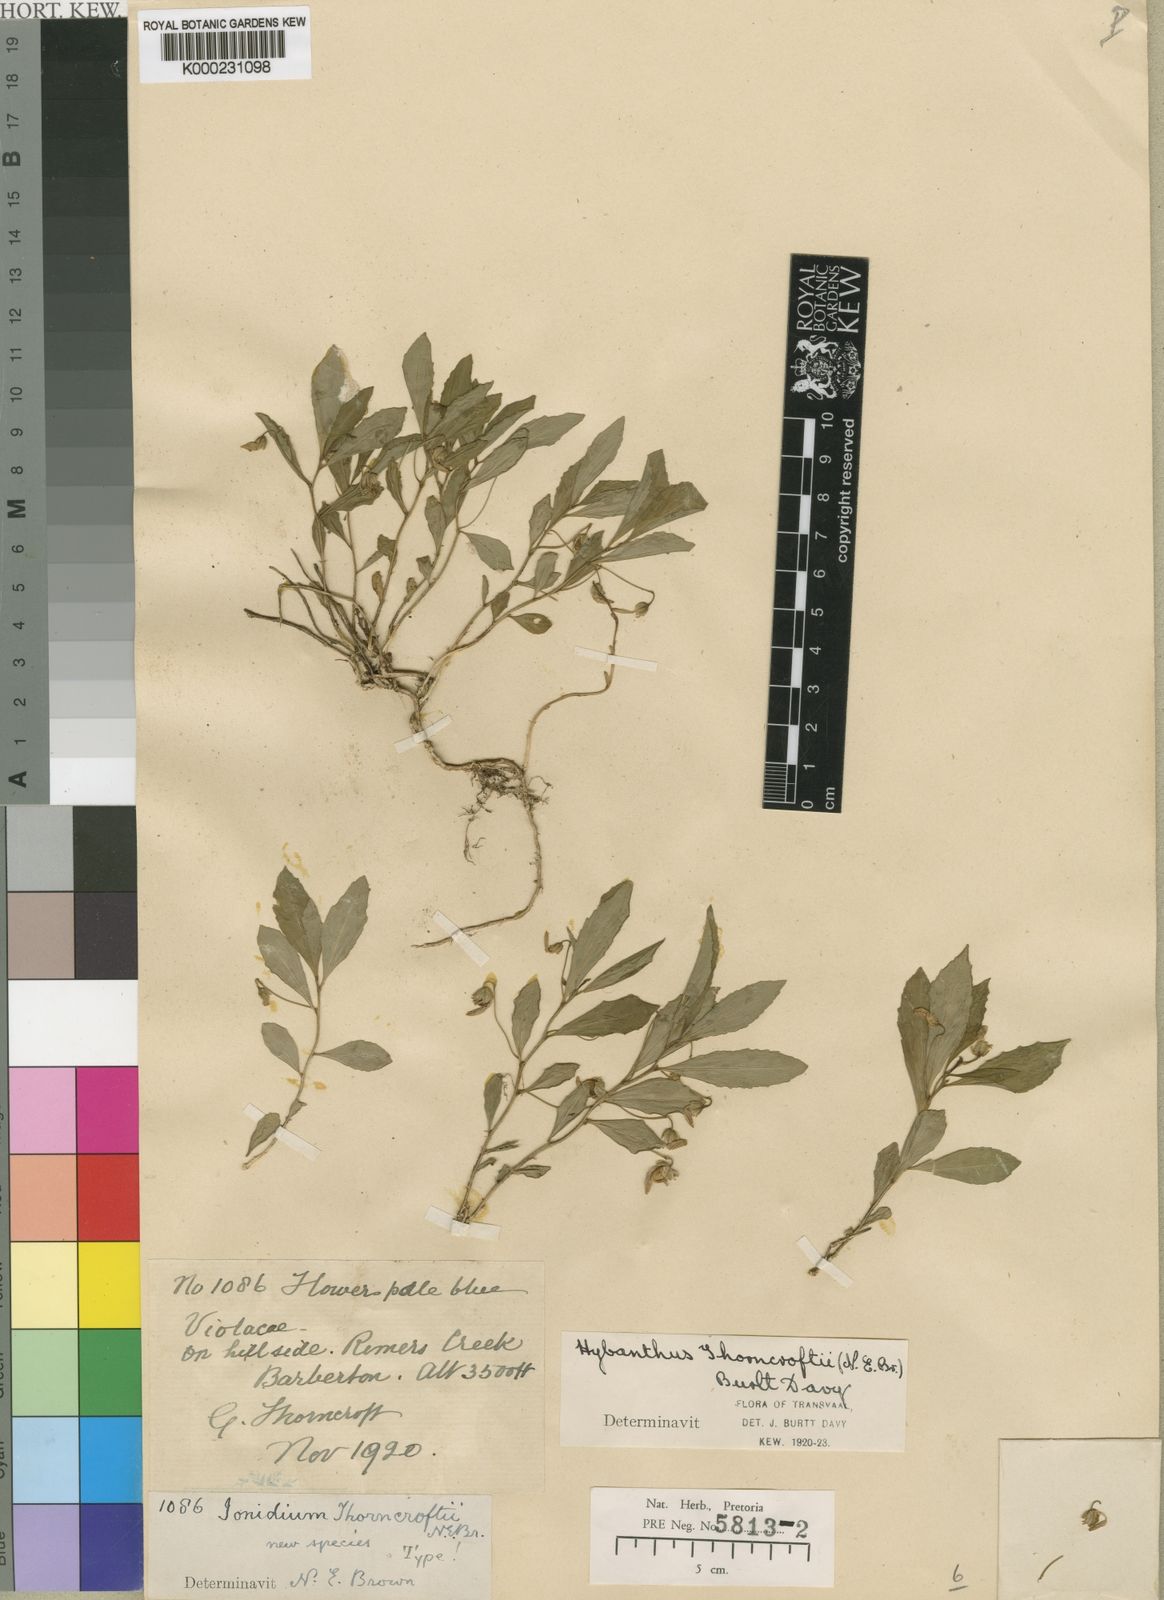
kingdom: Plantae
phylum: Tracheophyta
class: Magnoliopsida
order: Malpighiales
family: Violaceae
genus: Hybanthus
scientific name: Hybanthus Ionidium thorncroftii
